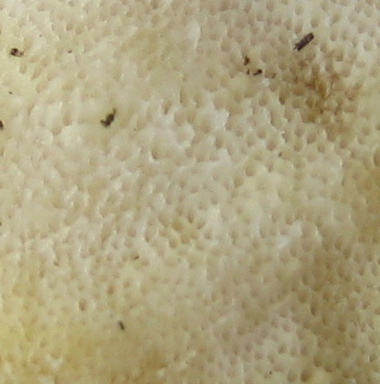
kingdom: Fungi
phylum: Basidiomycota
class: Agaricomycetes
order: Polyporales
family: Steccherinaceae
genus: Antrodiella
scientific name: Antrodiella serpula
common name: gulrandet elastikporesvamp
